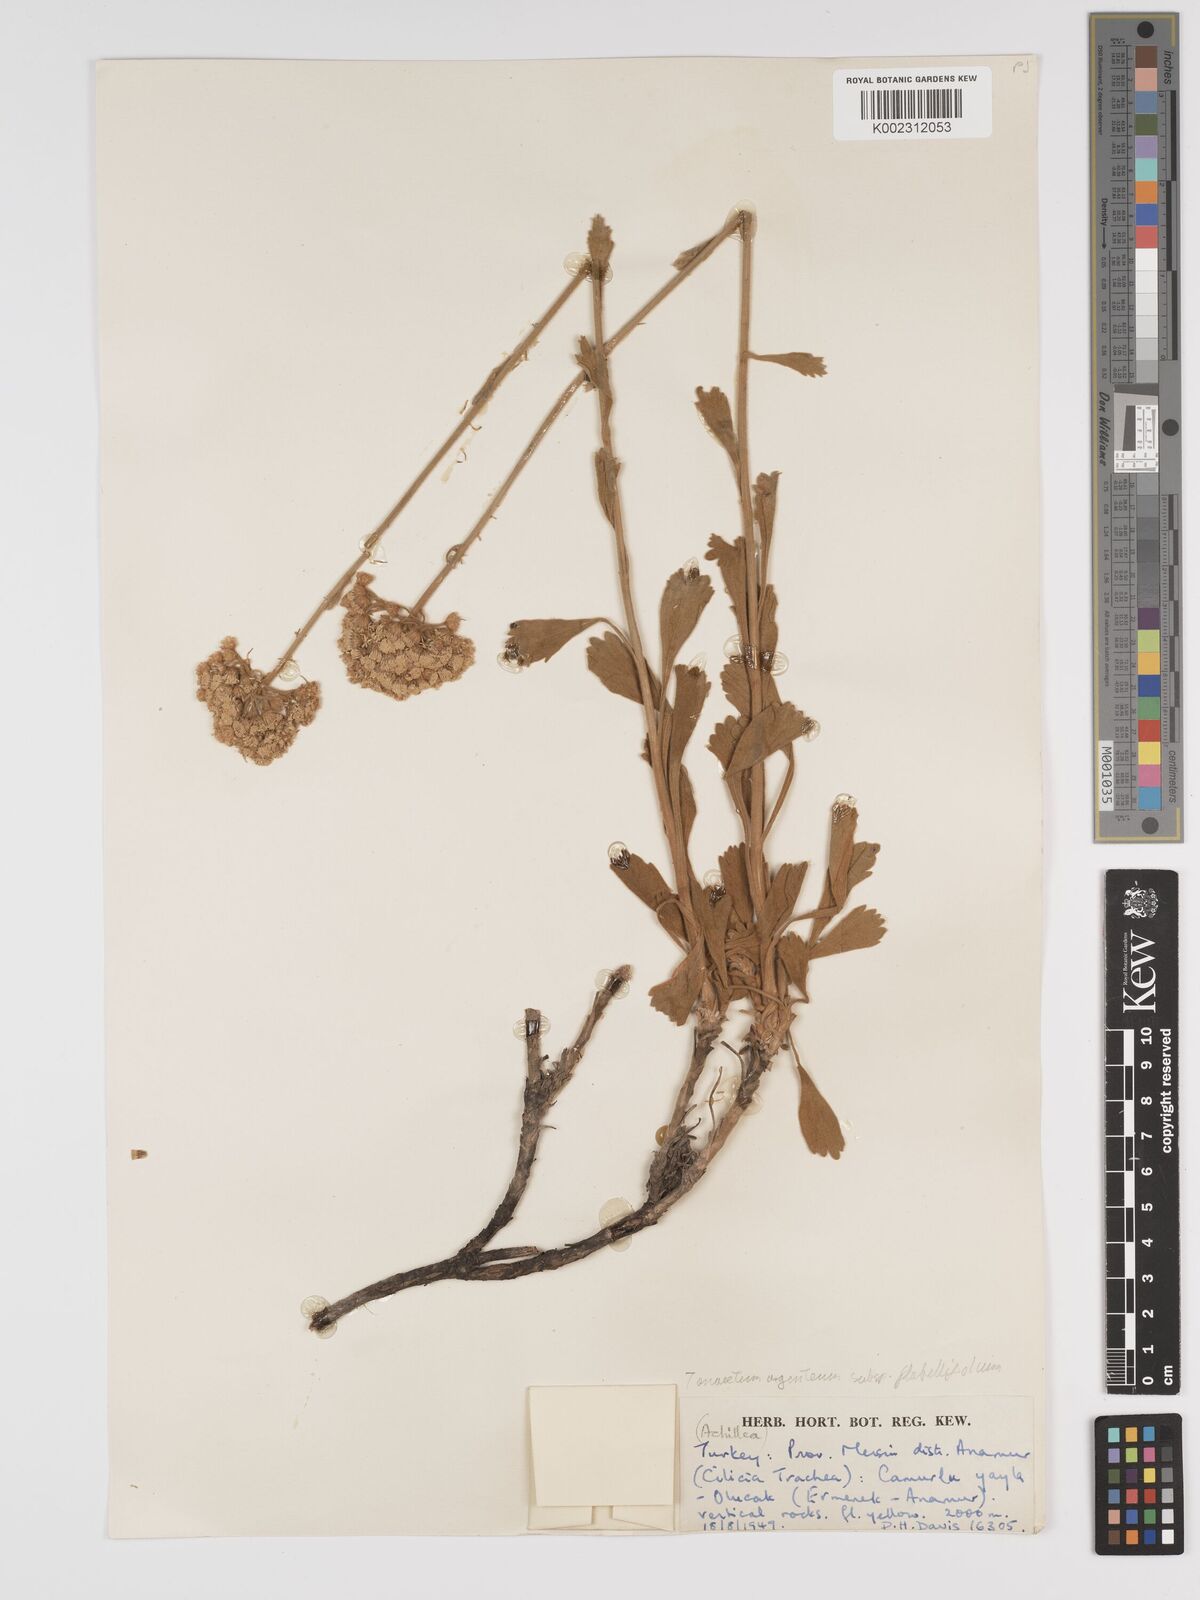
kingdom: Plantae
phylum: Tracheophyta
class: Magnoliopsida
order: Asterales
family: Asteraceae
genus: Tanacetum
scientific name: Tanacetum argenteum
